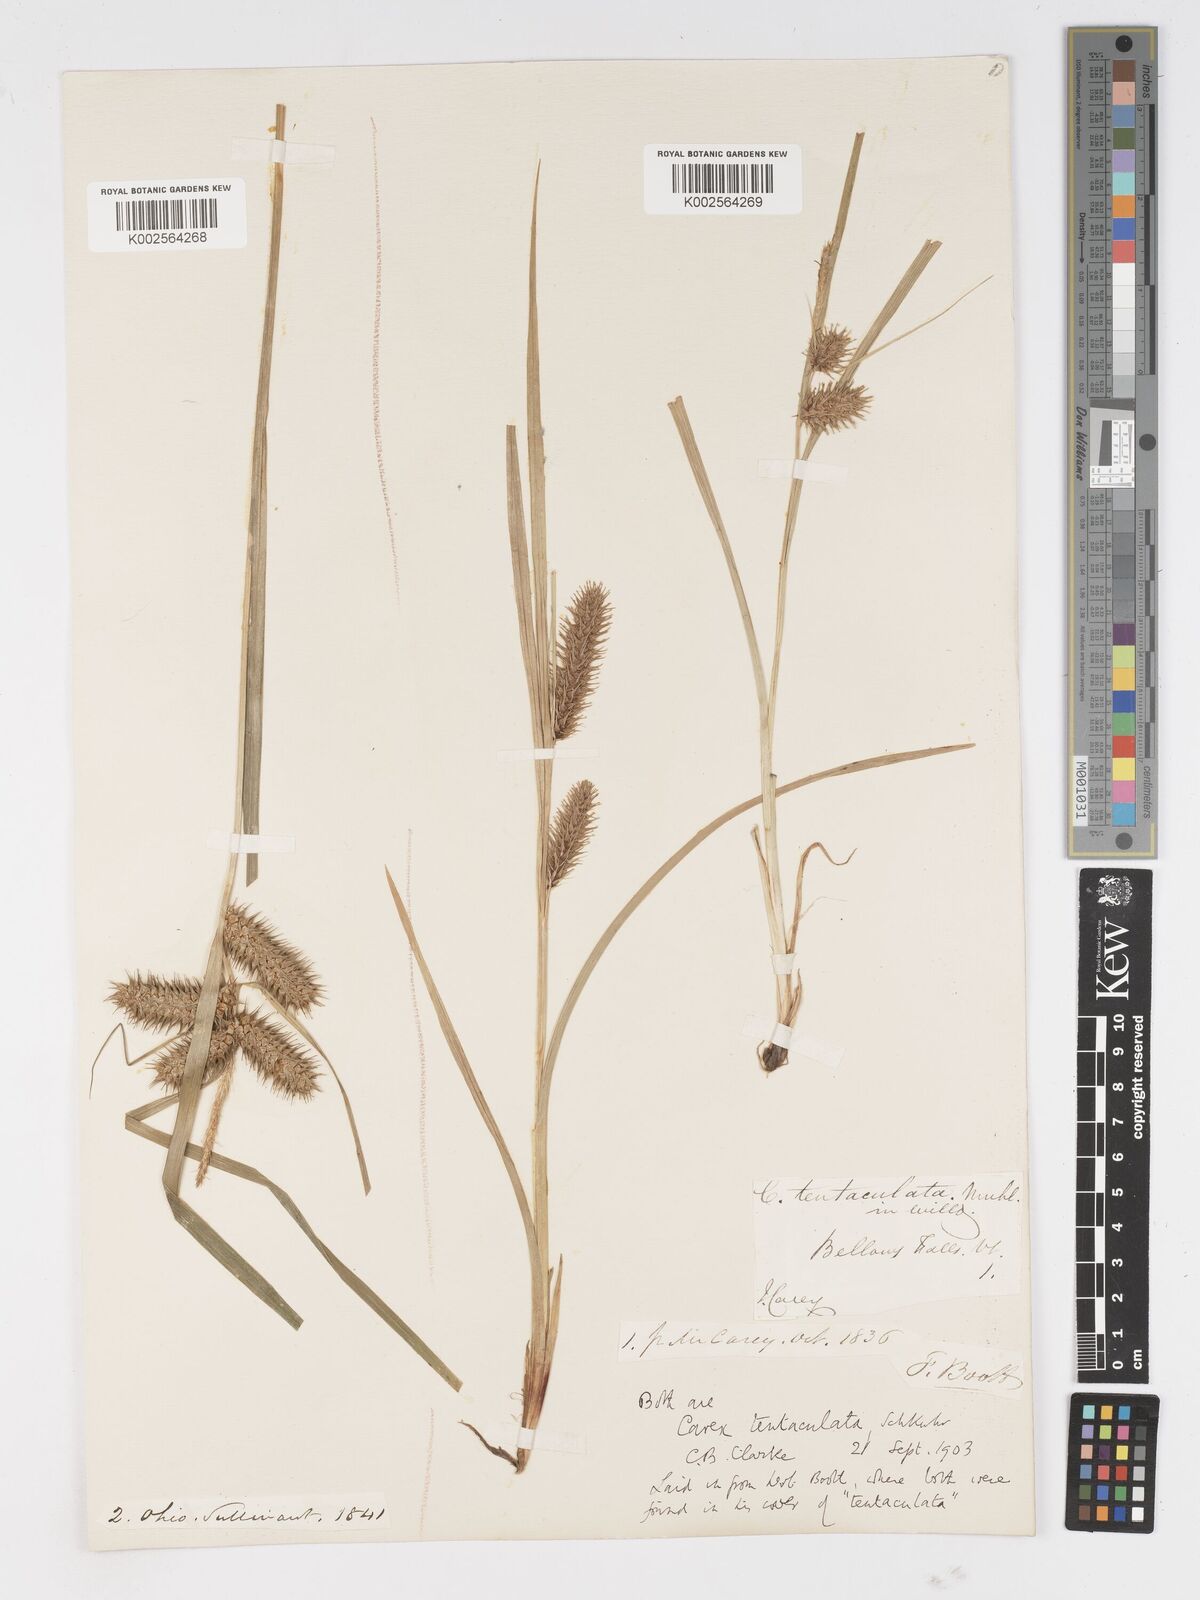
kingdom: Plantae
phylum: Tracheophyta
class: Liliopsida
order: Poales
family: Cyperaceae
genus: Carex
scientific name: Carex lurida
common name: Sallow sedge
